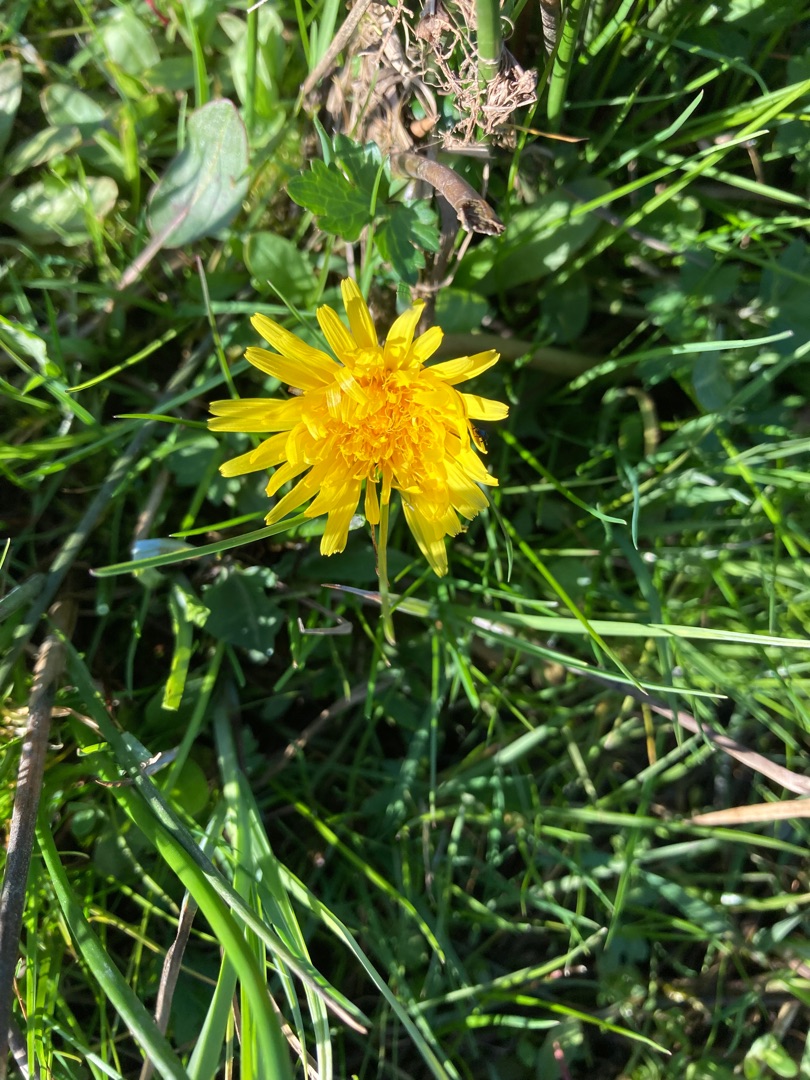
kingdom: Plantae
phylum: Tracheophyta
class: Magnoliopsida
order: Asterales
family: Asteraceae
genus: Taraxacum
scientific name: Taraxacum
